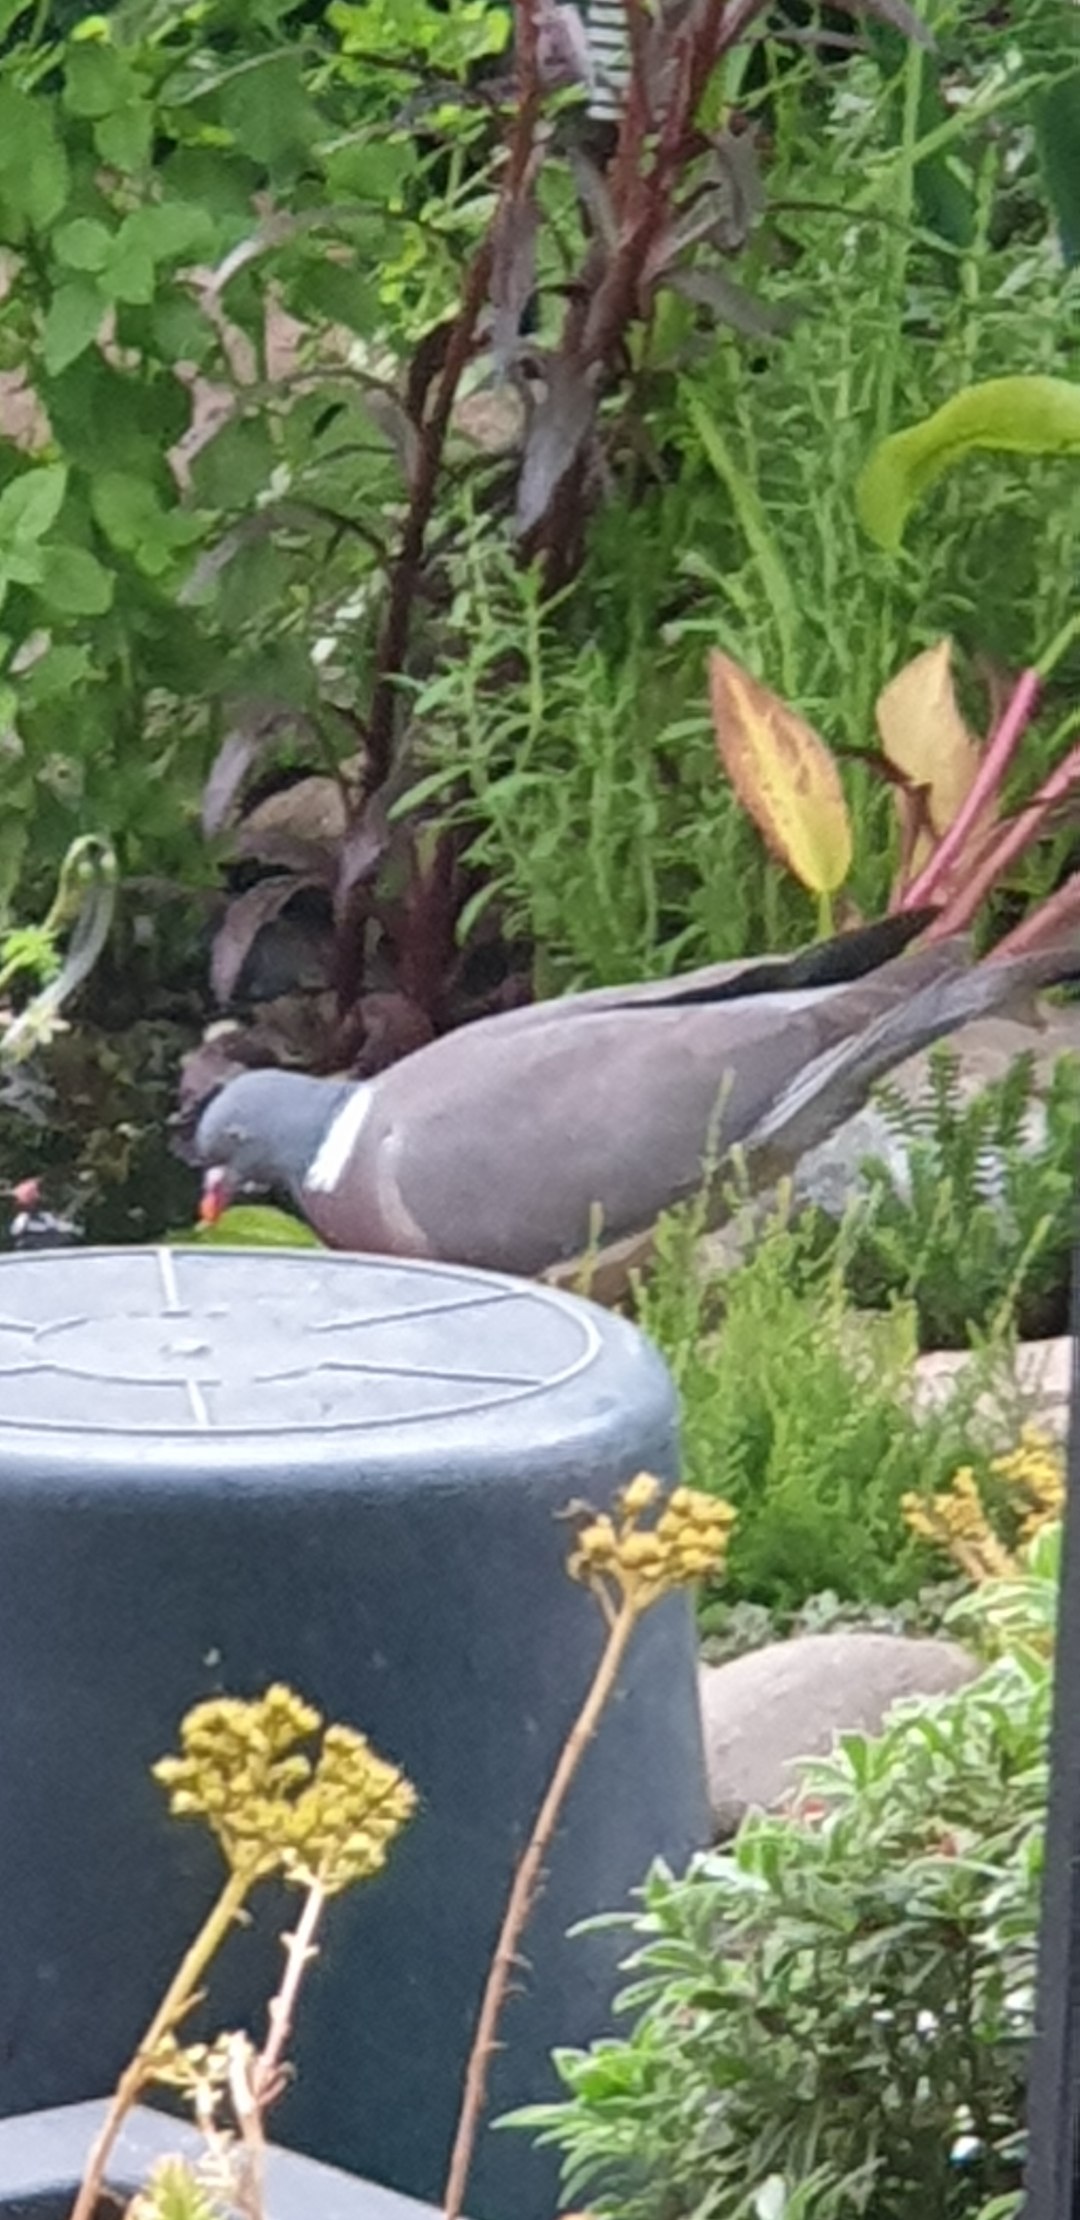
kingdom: Animalia
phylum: Chordata
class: Aves
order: Columbiformes
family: Columbidae
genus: Columba
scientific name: Columba palumbus
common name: Ringdue
